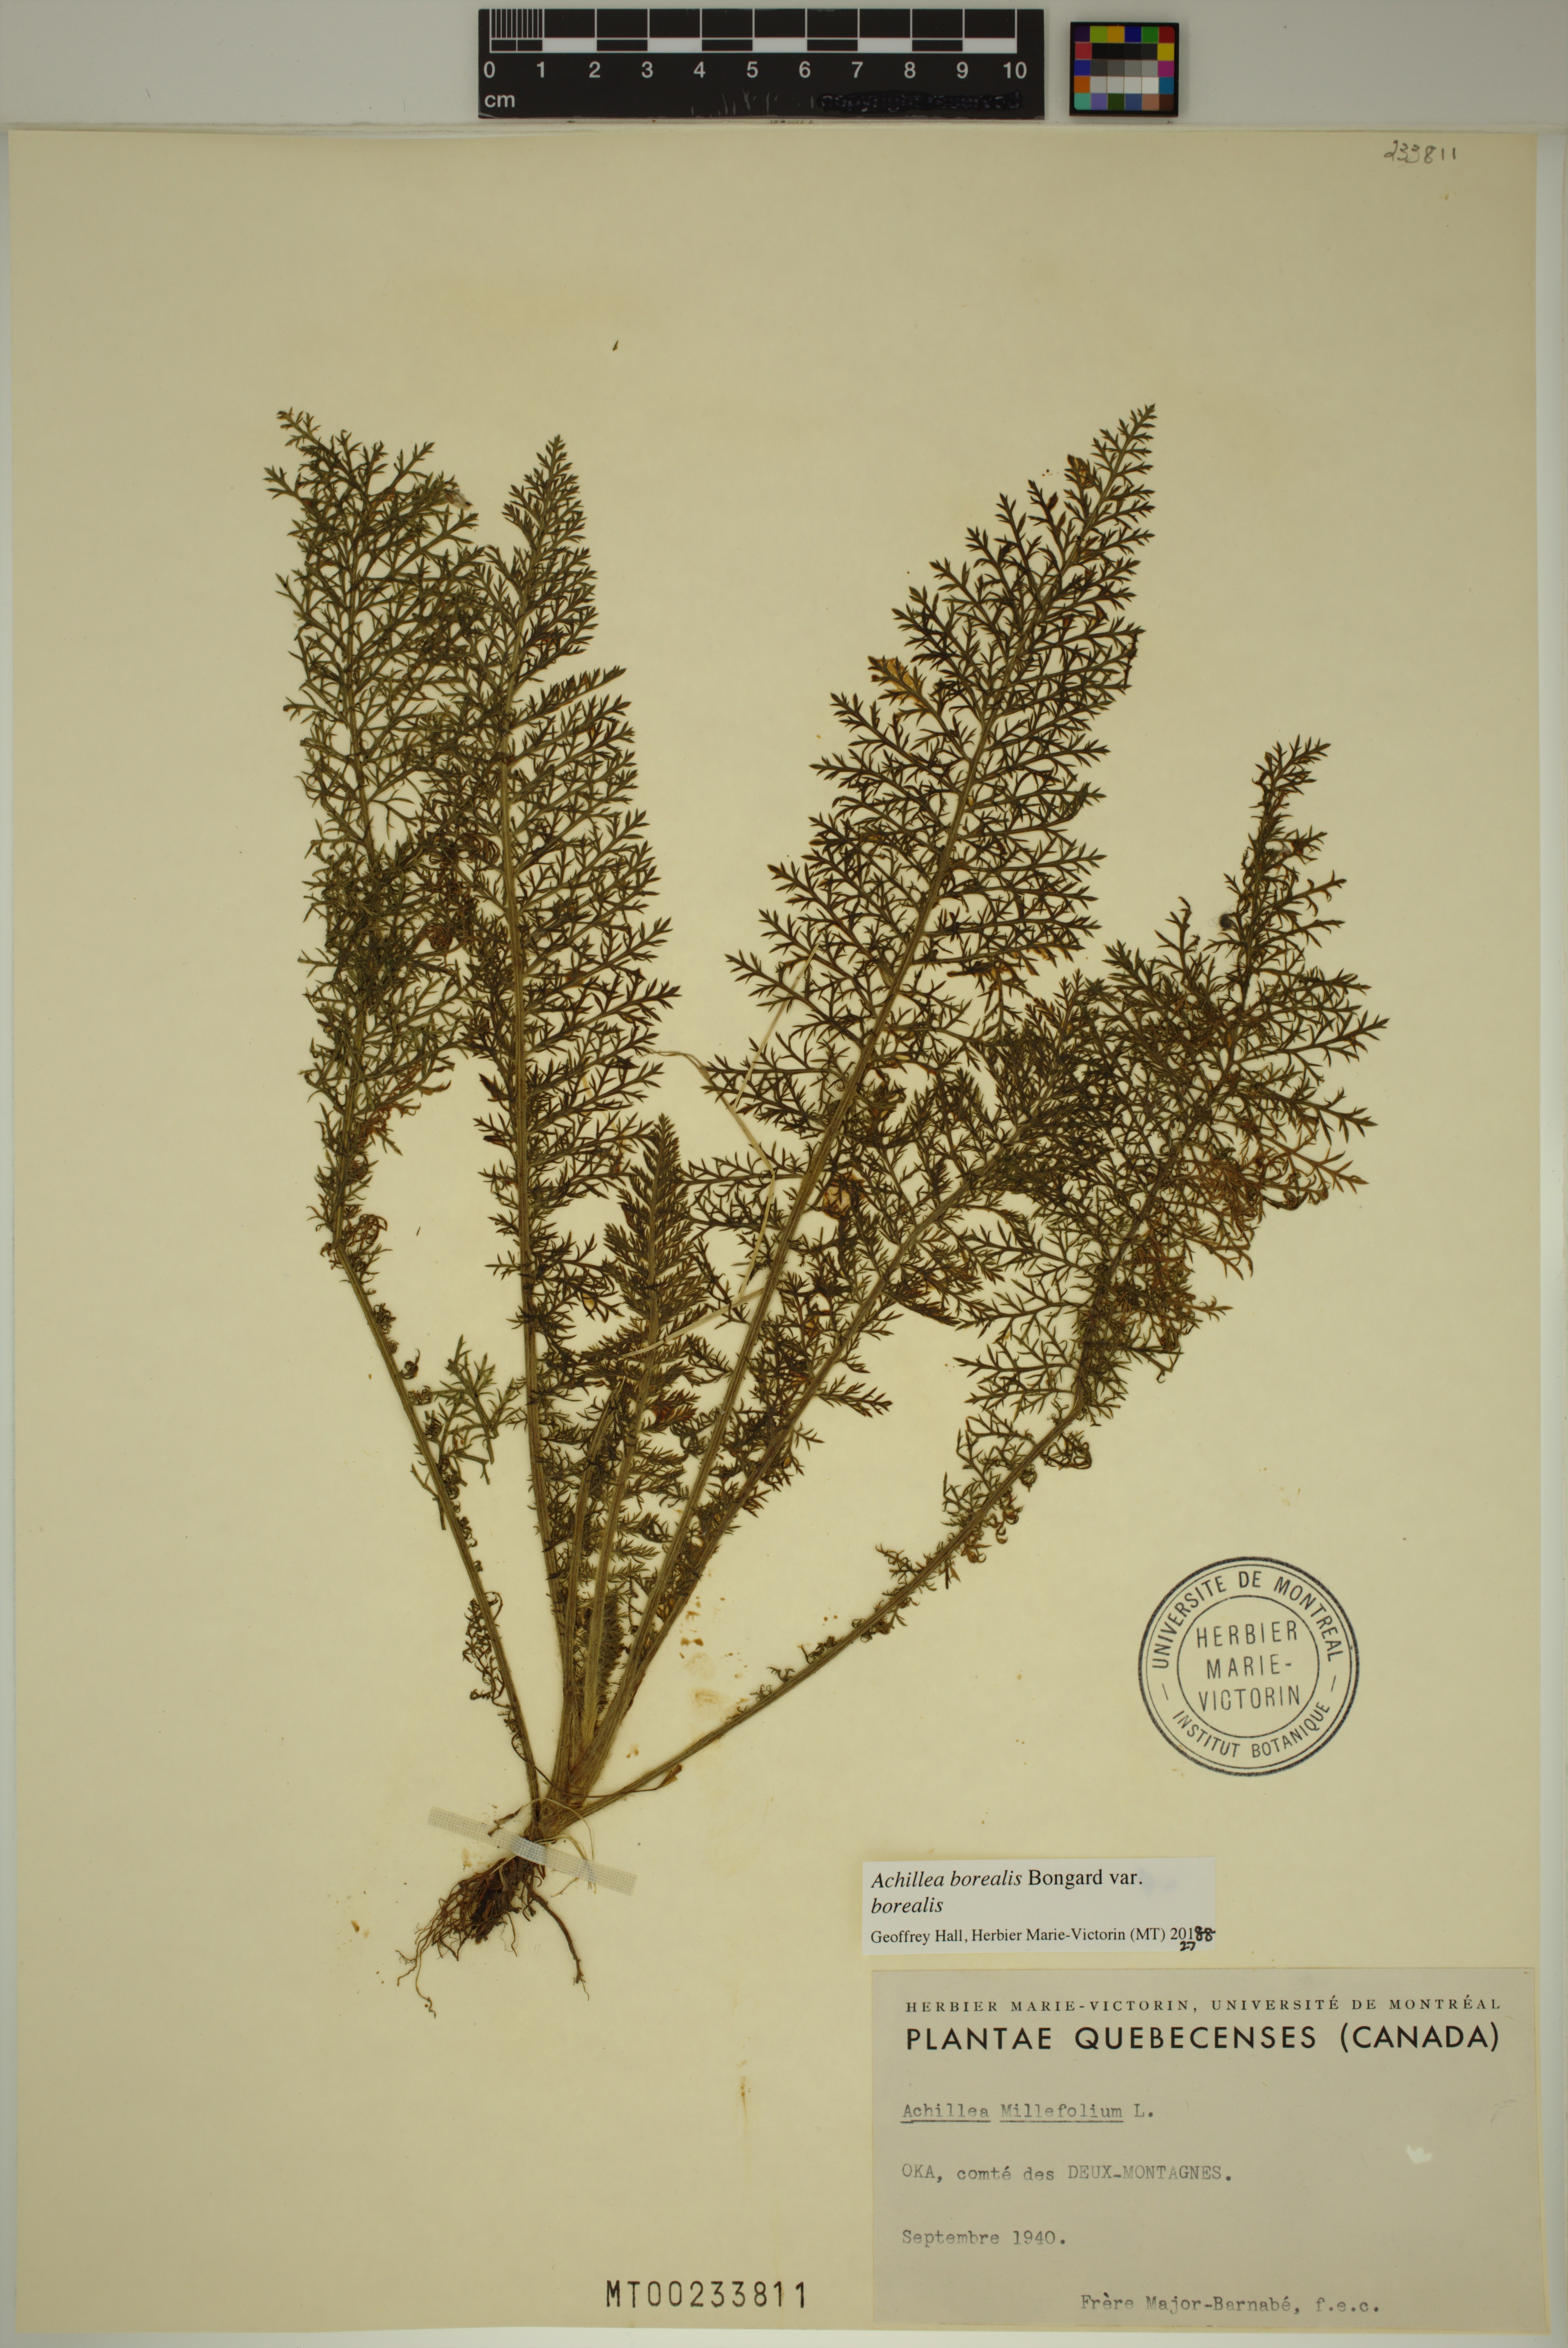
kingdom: Plantae
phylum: Tracheophyta
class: Magnoliopsida
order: Asterales
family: Asteraceae
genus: Achillea
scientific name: Achillea millefolium
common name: Yarrow
